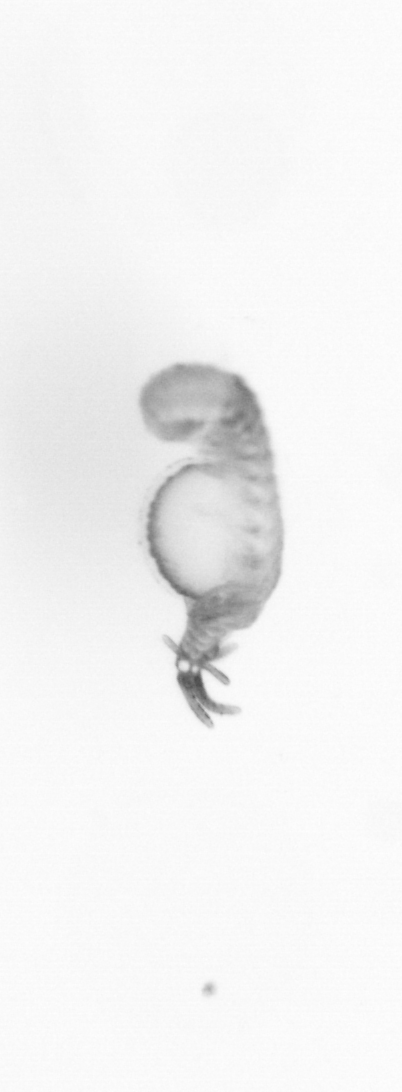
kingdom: Animalia
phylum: Annelida
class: Polychaeta
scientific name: Polychaeta
